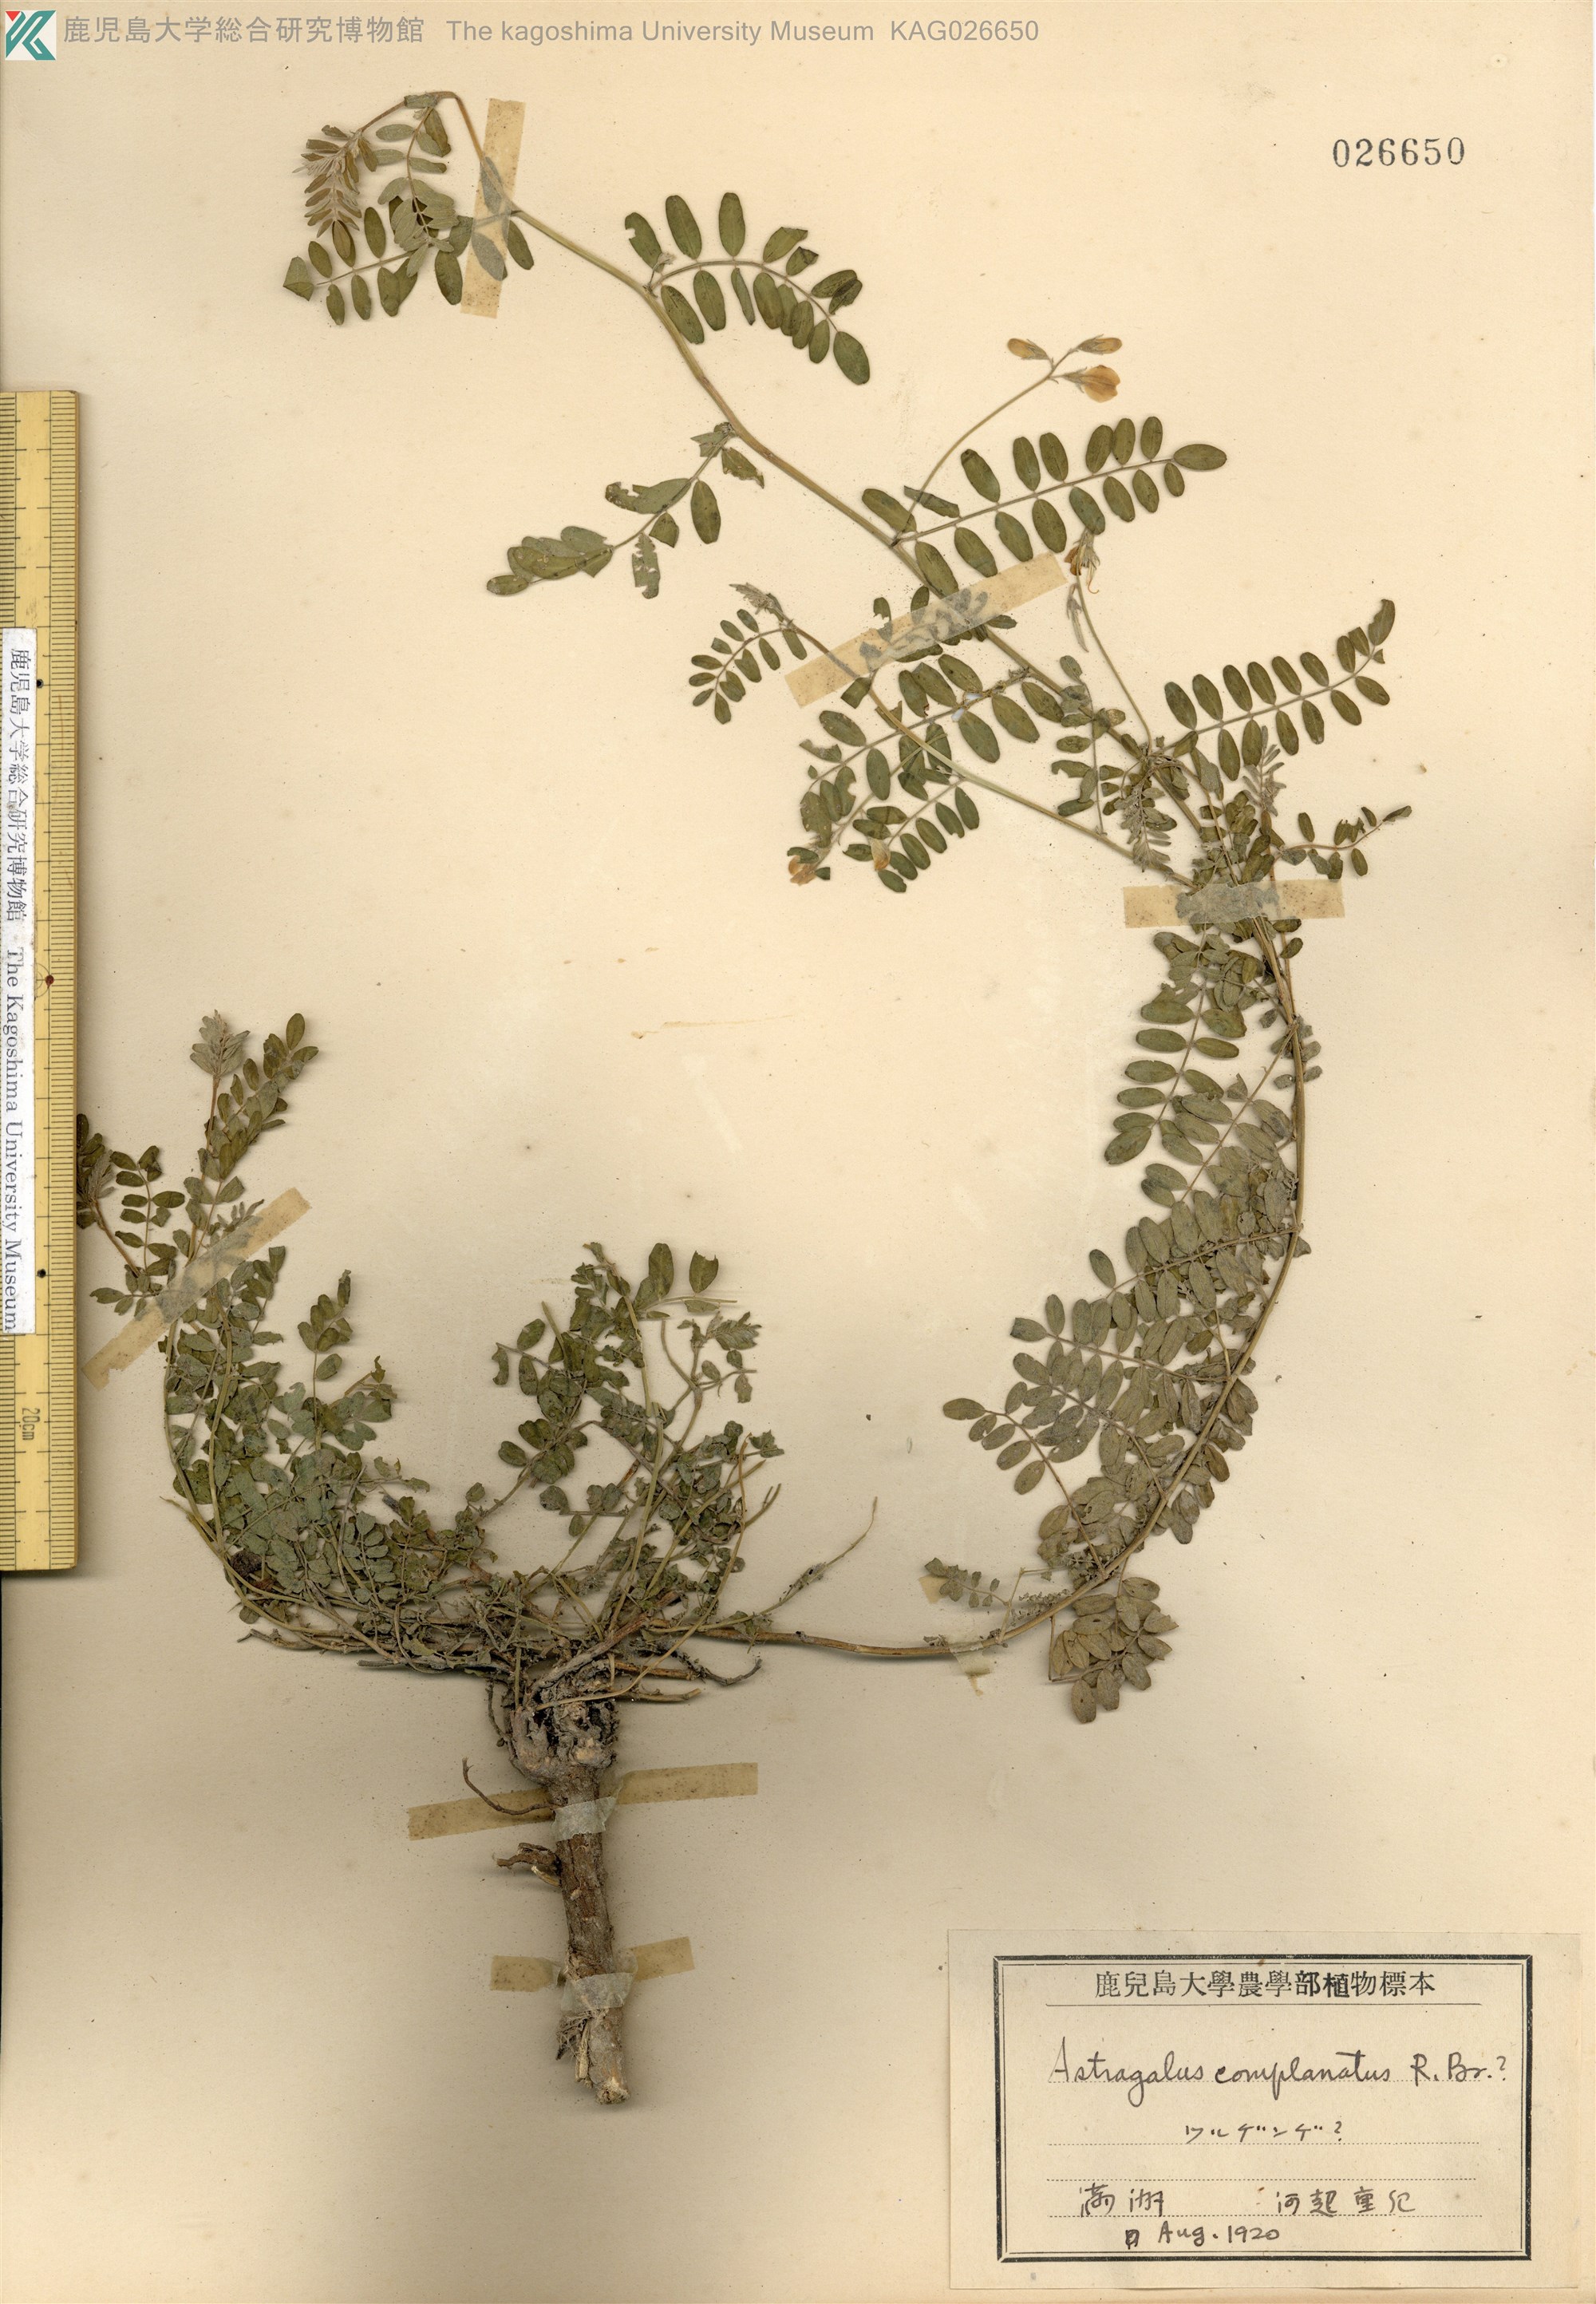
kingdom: Plantae
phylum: Tracheophyta
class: Magnoliopsida
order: Fabales
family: Fabaceae
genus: Phyllolobium
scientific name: Phyllolobium chinense
